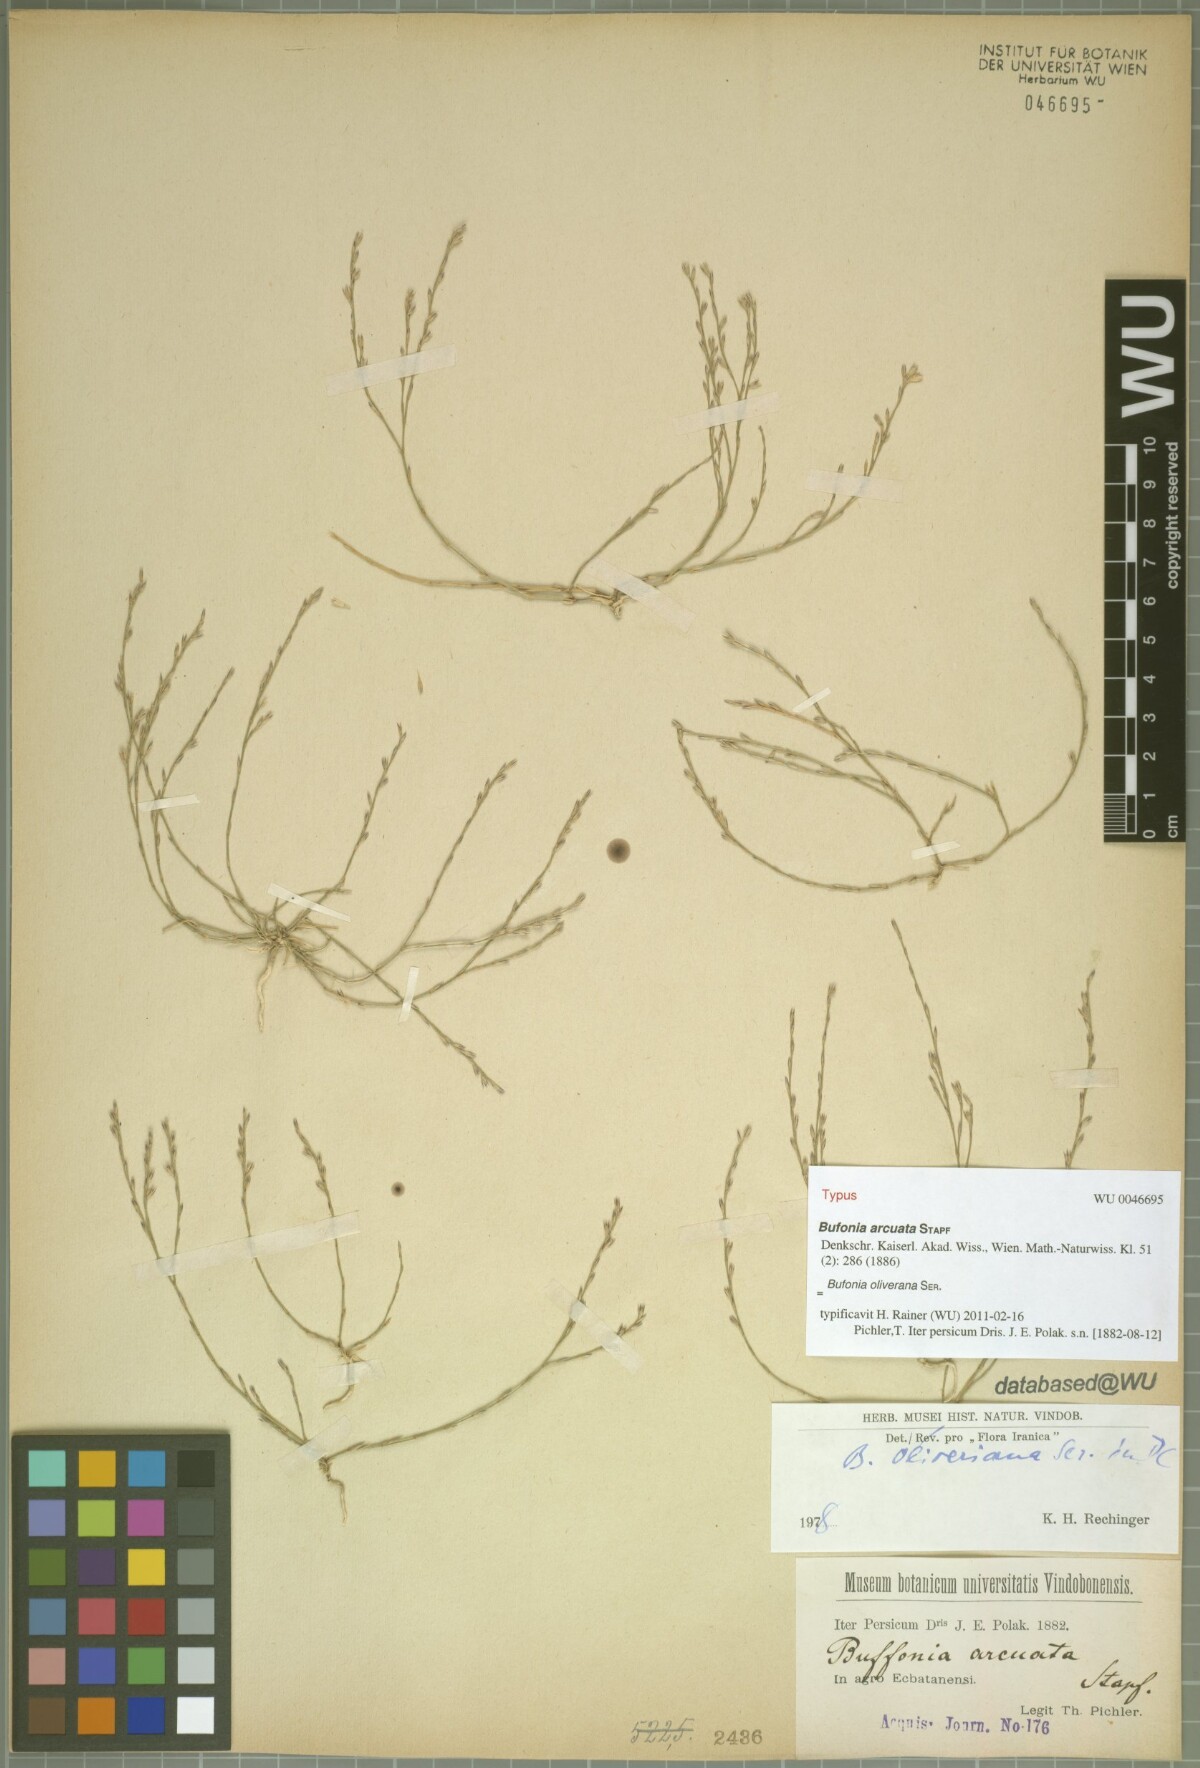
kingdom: Plantae
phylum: Tracheophyta
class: Magnoliopsida
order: Caryophyllales
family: Caryophyllaceae
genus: Bufonia
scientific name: Bufonia oliveriana
